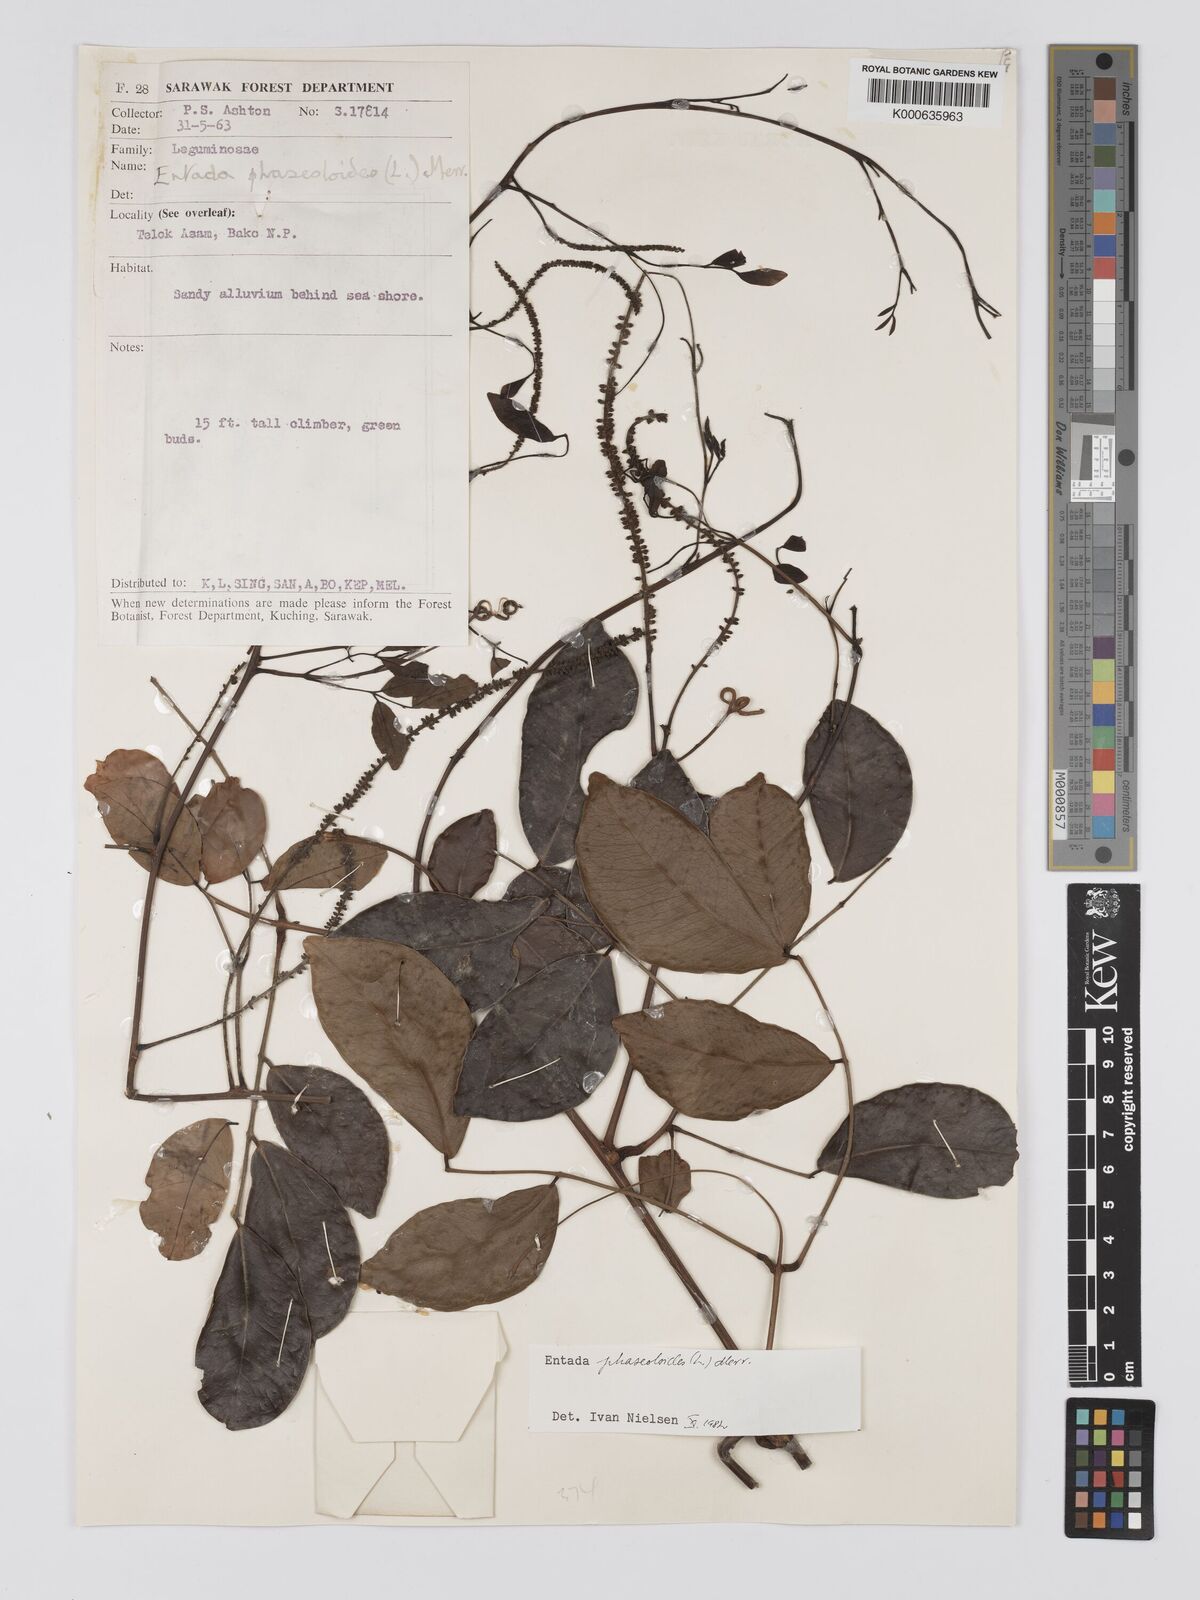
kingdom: Plantae
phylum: Tracheophyta
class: Magnoliopsida
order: Fabales
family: Fabaceae
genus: Entada
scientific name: Entada phaseoloides
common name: Matchbox-bean
